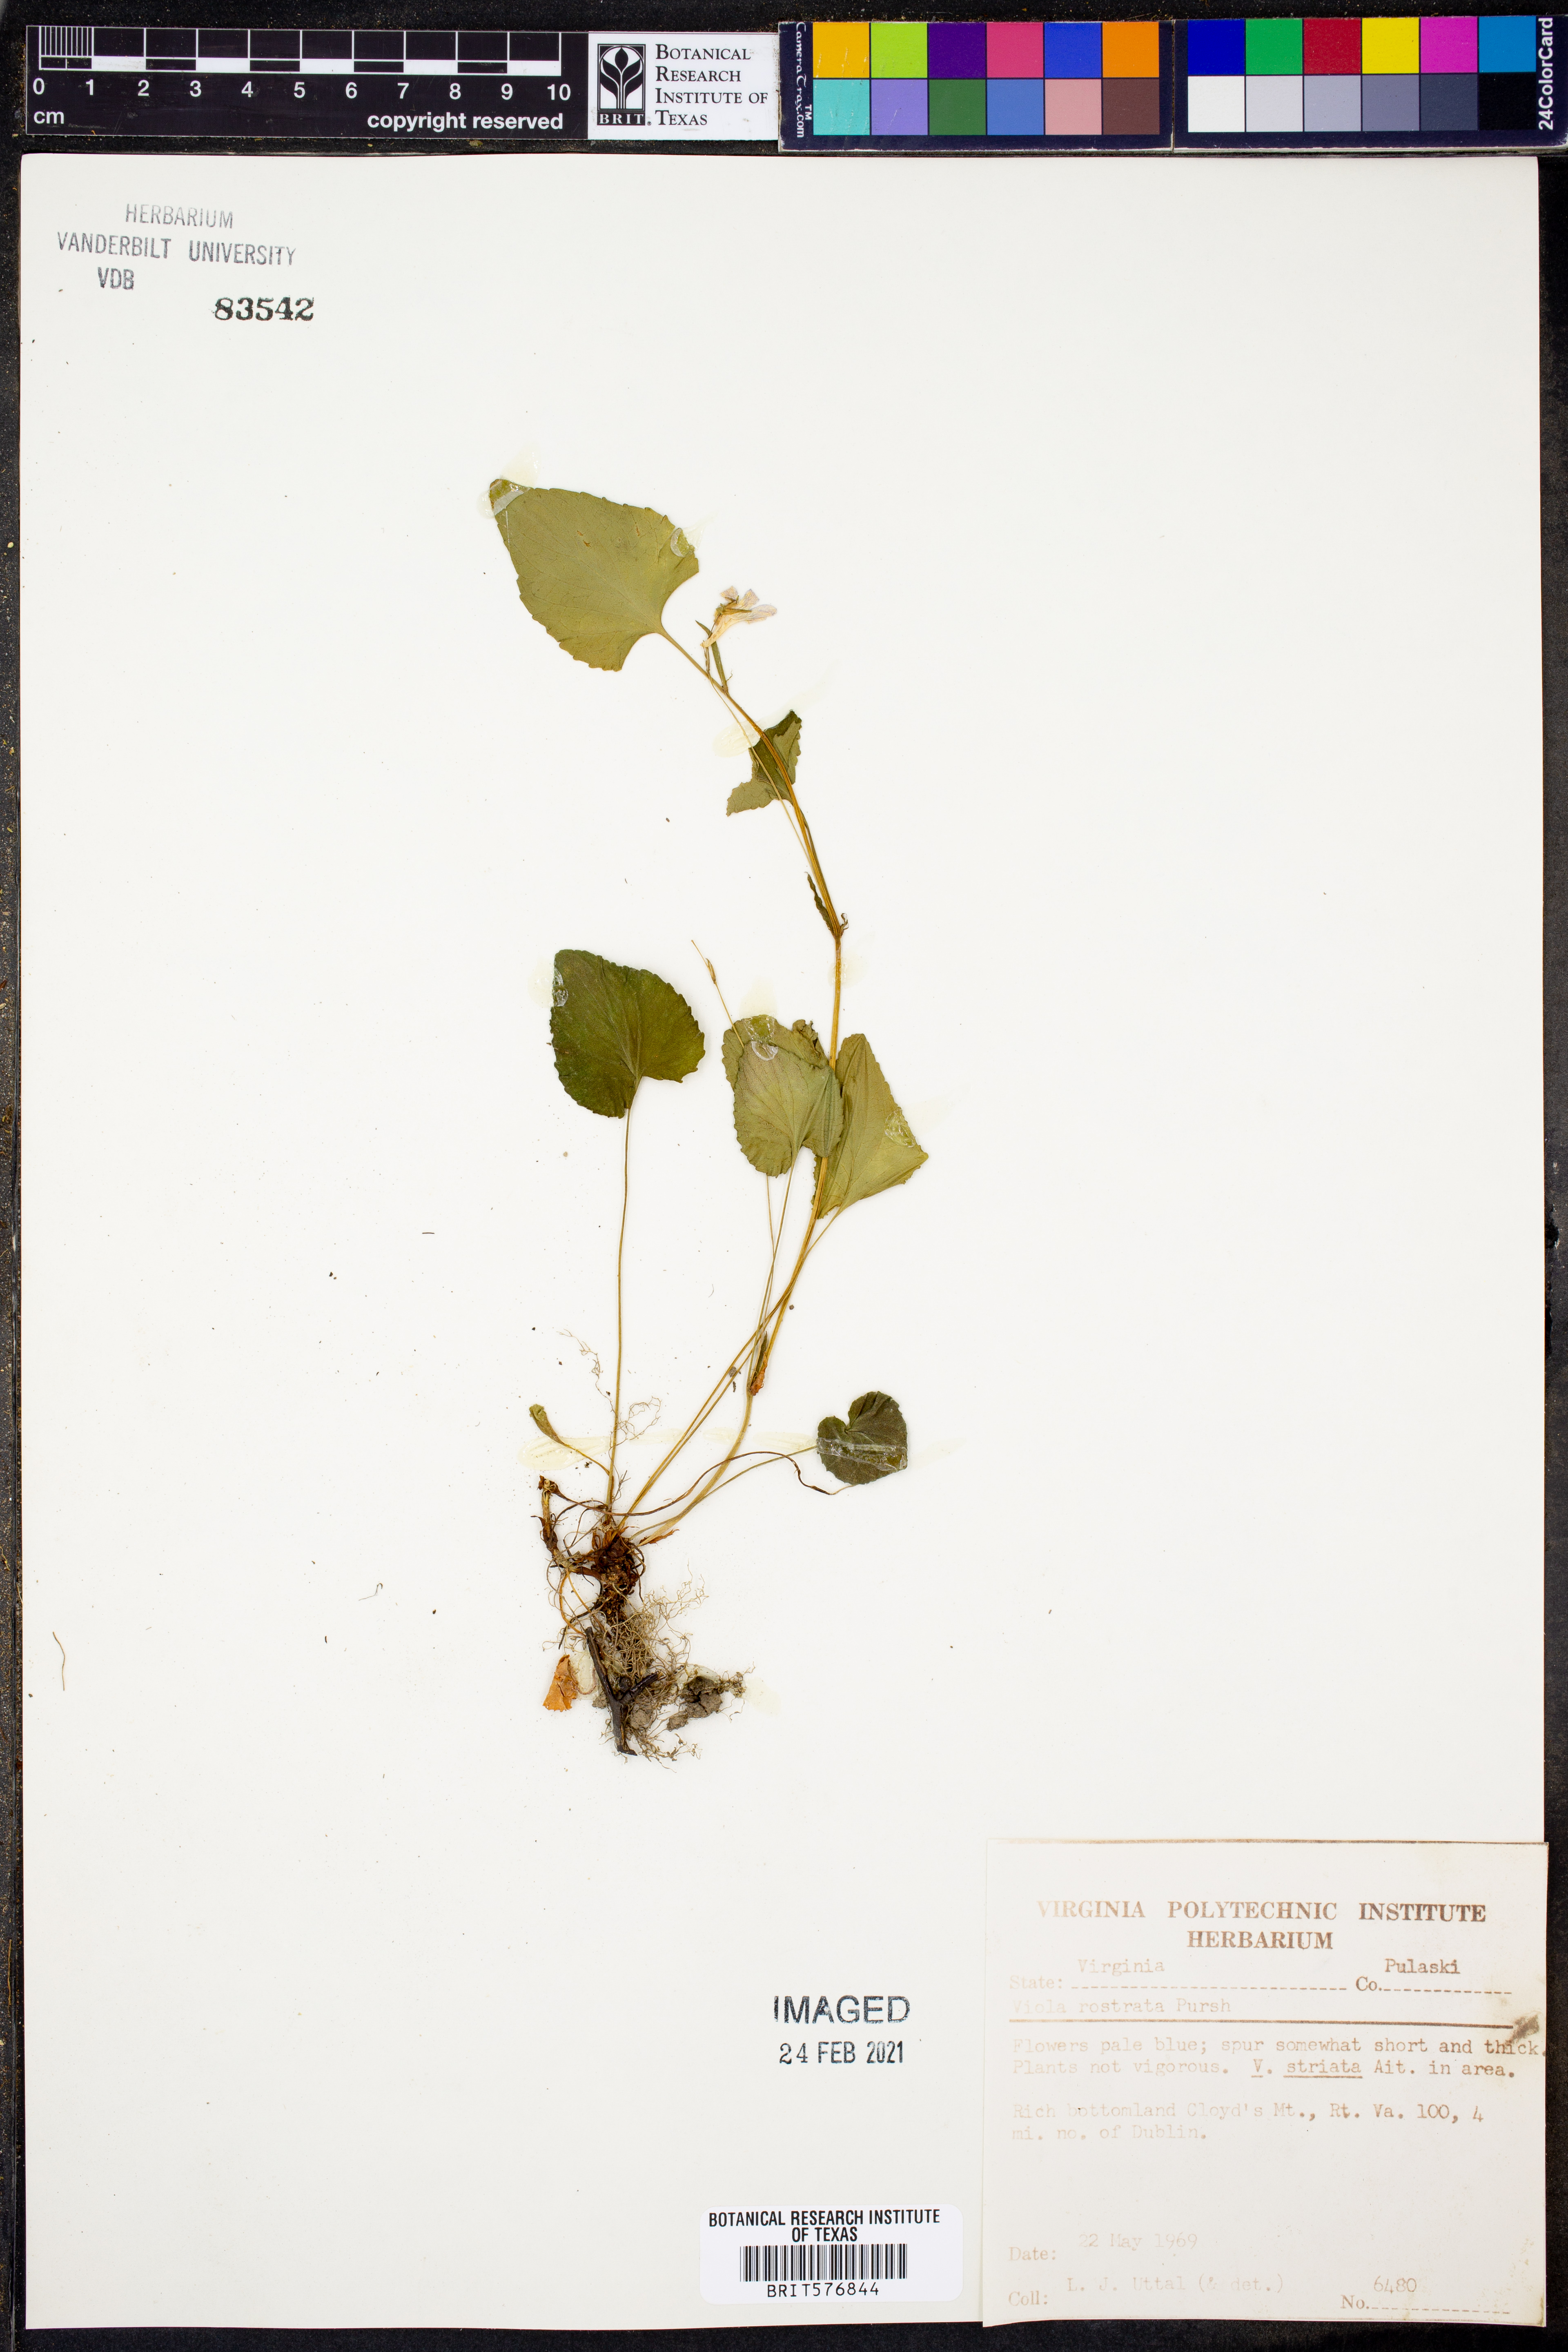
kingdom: Plantae
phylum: Tracheophyta
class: Magnoliopsida
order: Malpighiales
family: Violaceae
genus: Viola
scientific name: Viola rostrata
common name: Long-spur violet
